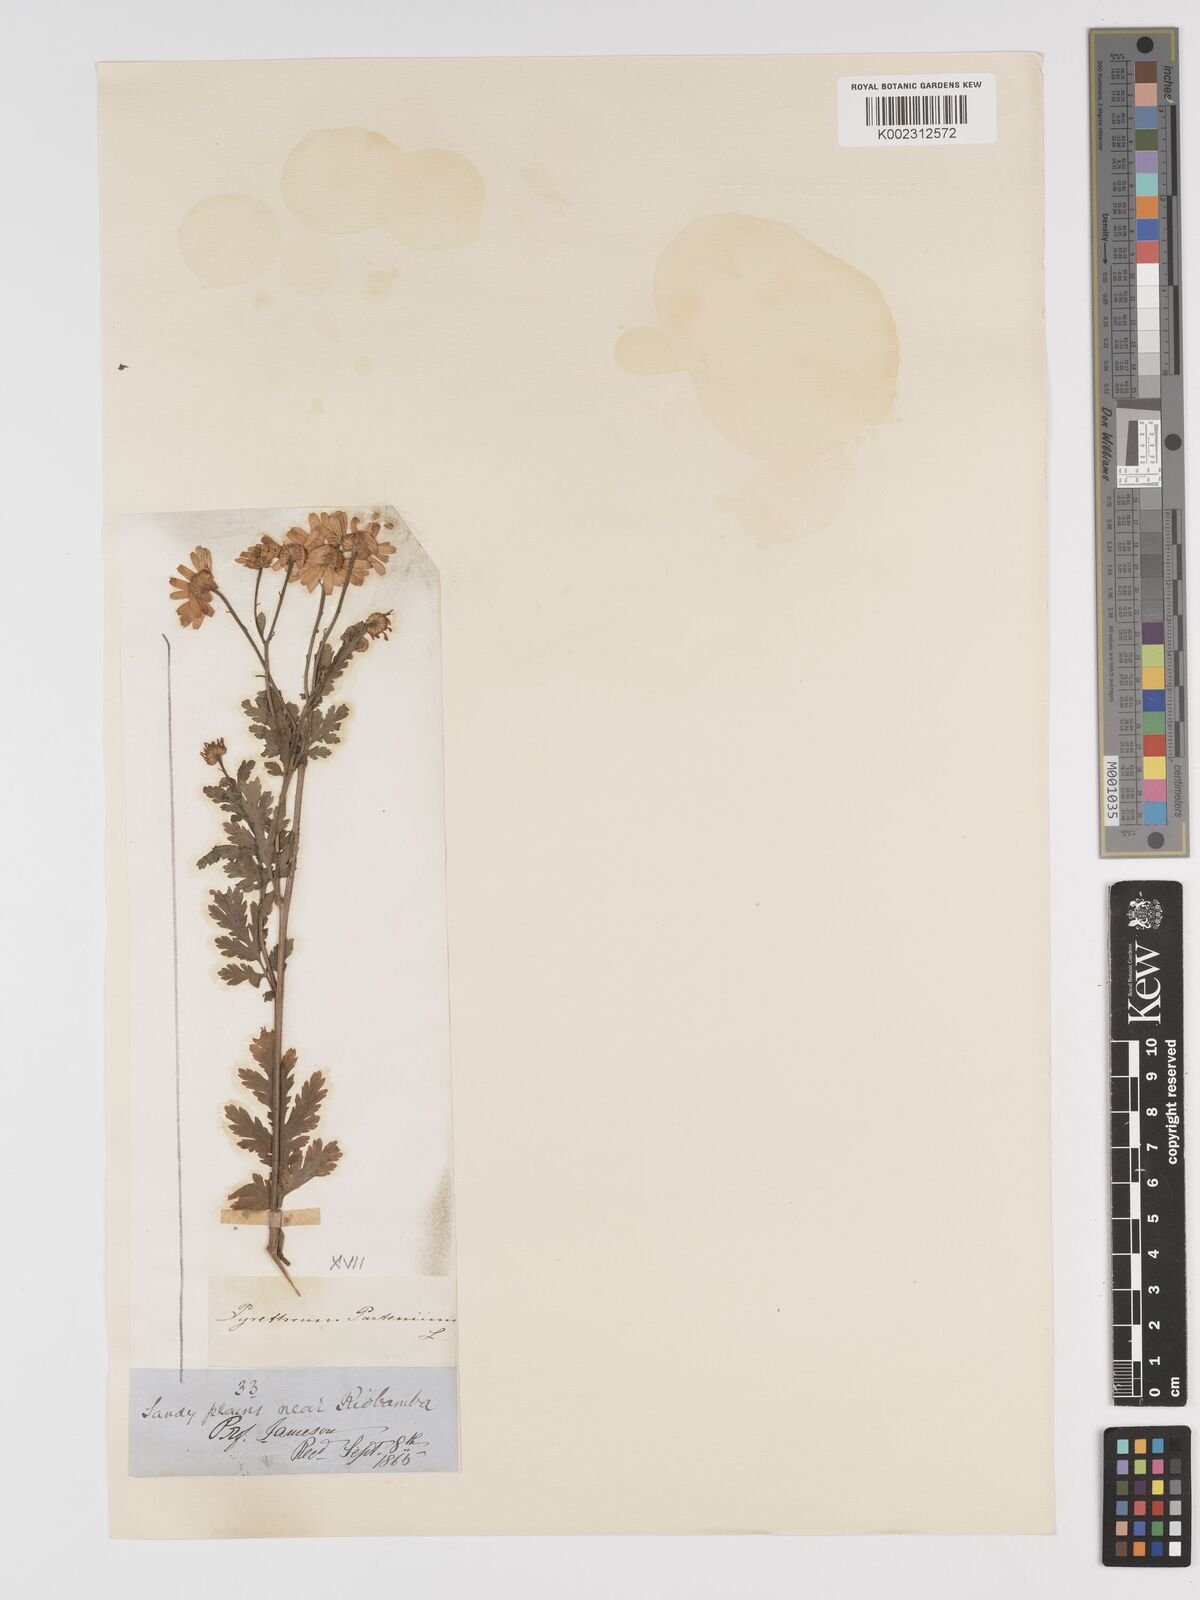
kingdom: Plantae
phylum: Tracheophyta
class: Magnoliopsida
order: Asterales
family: Asteraceae
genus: Tanacetum
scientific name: Tanacetum parthenium
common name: Feverfew
